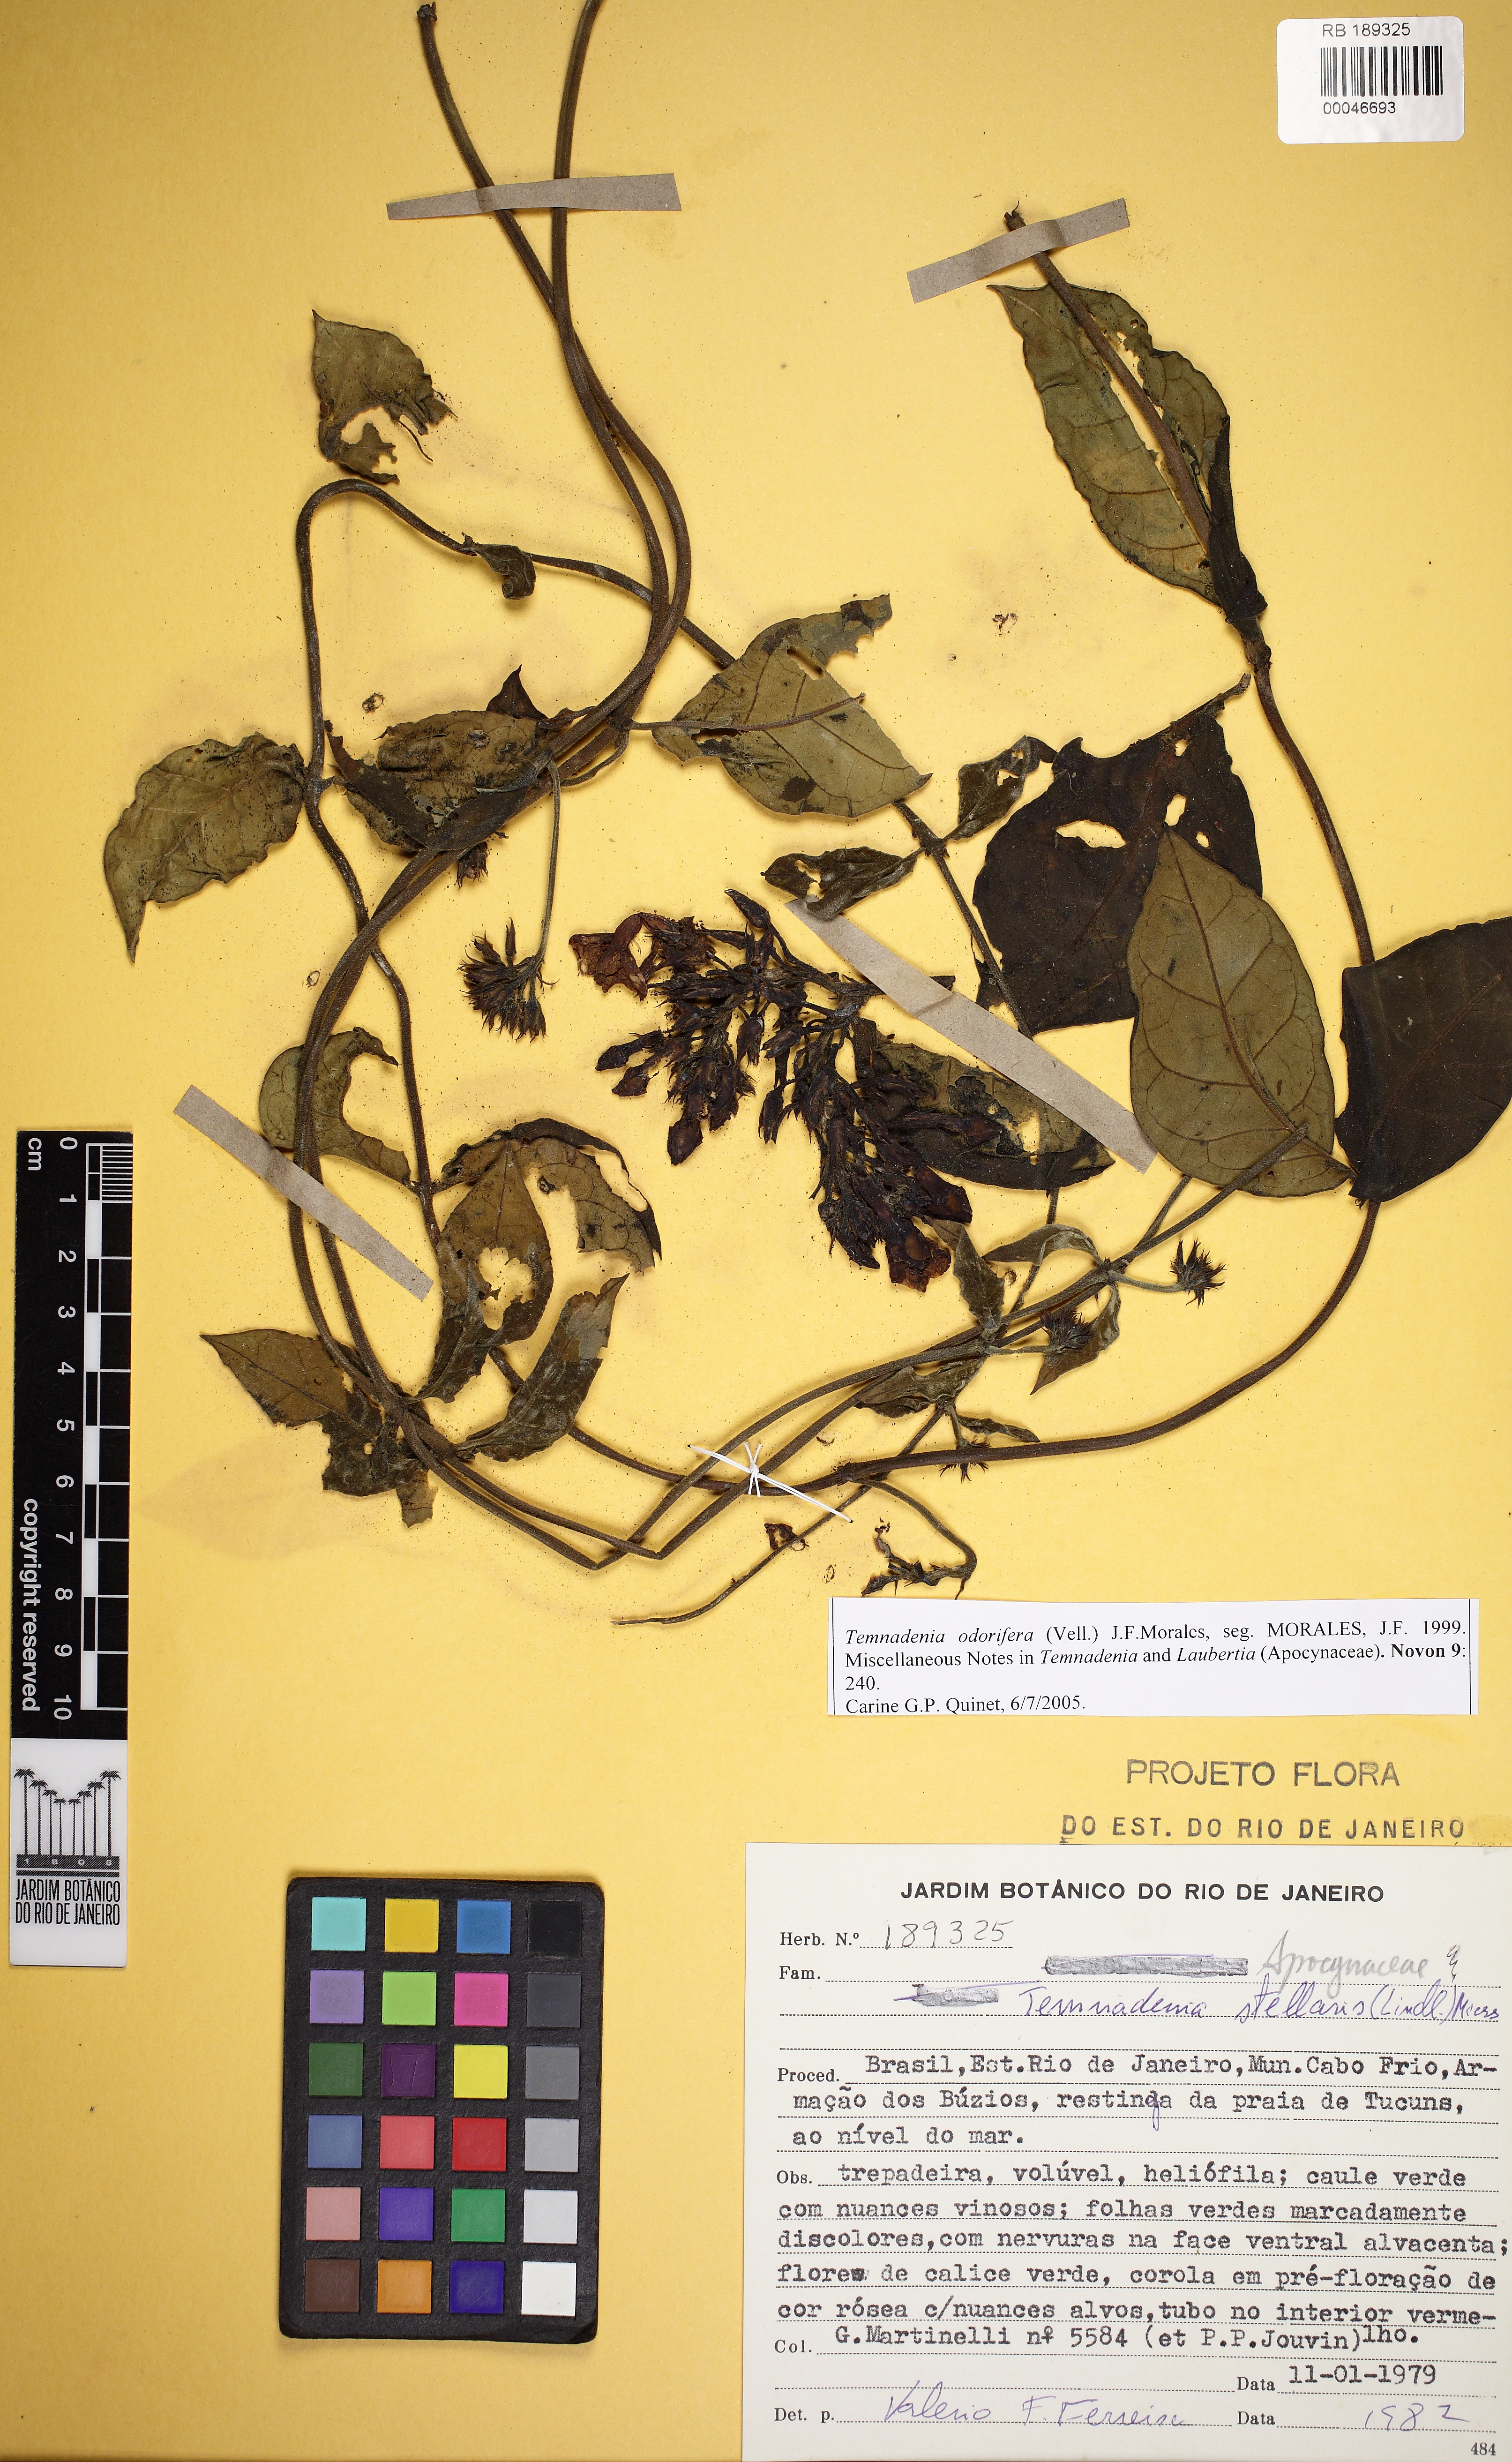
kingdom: Plantae
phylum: Tracheophyta
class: Magnoliopsida
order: Gentianales
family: Apocynaceae
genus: Temnadenia
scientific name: Temnadenia odorifera
